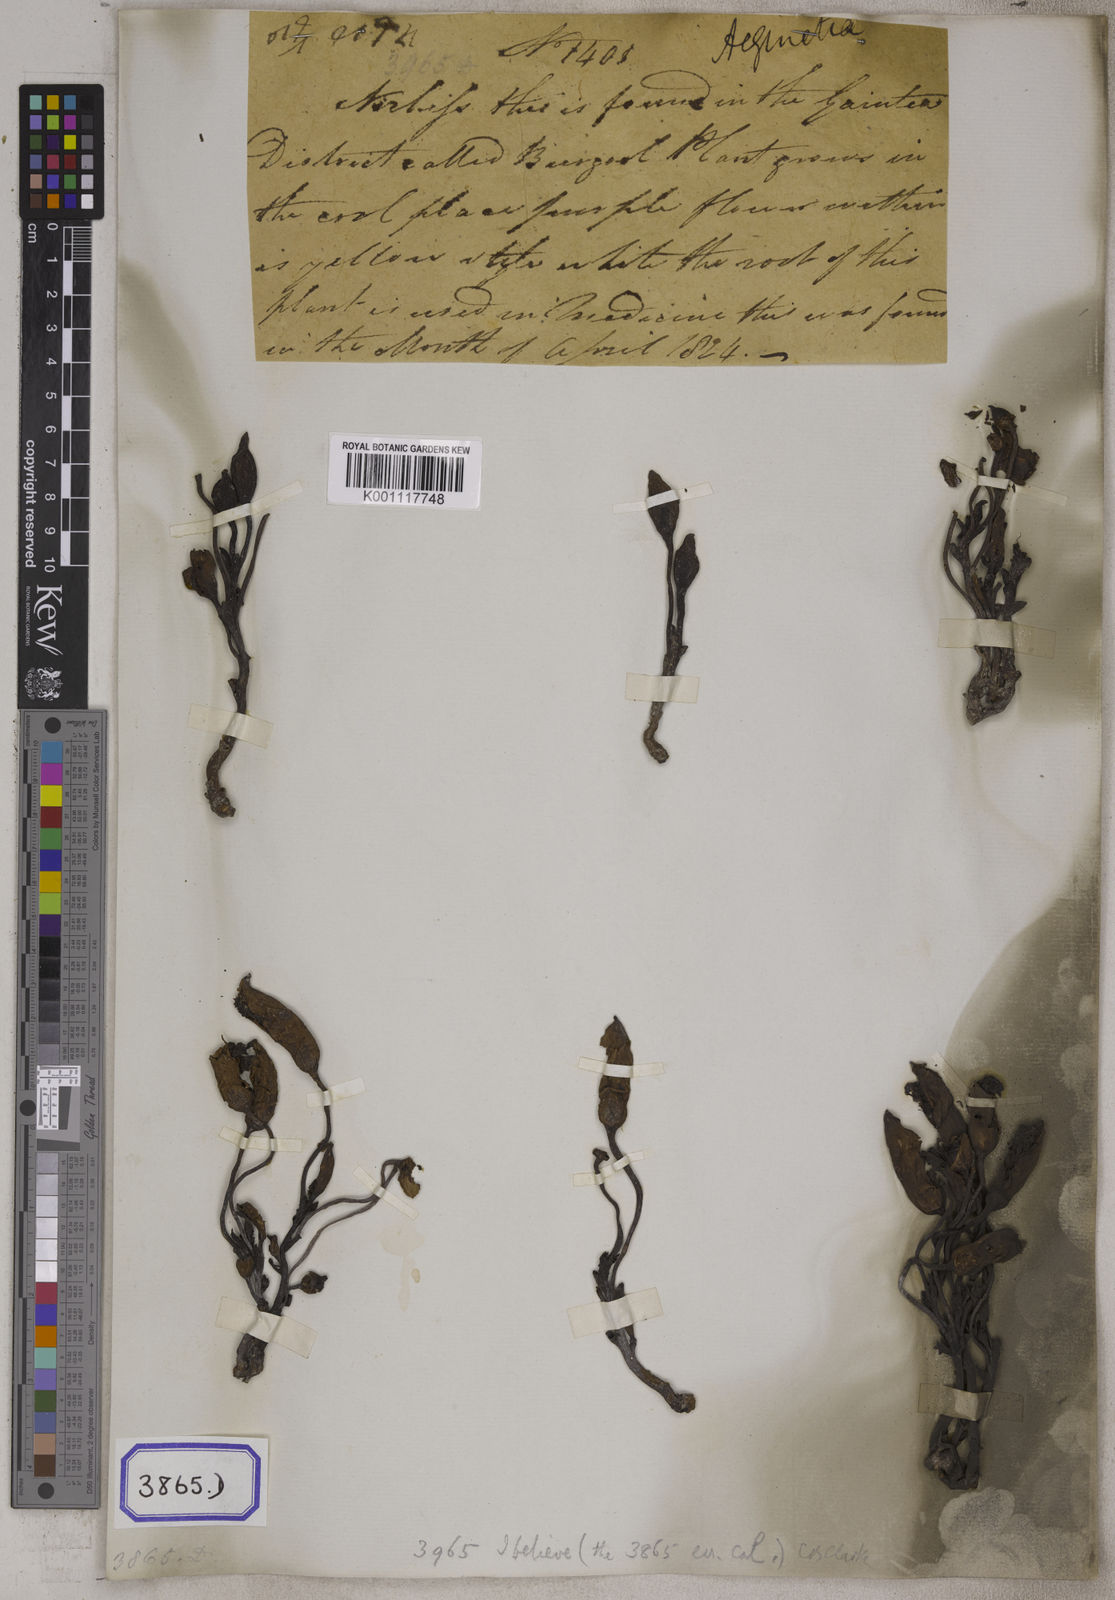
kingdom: Plantae
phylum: Tracheophyta
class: Magnoliopsida
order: Lamiales
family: Orobanchaceae
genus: Aeginetia
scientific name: Aeginetia indica
